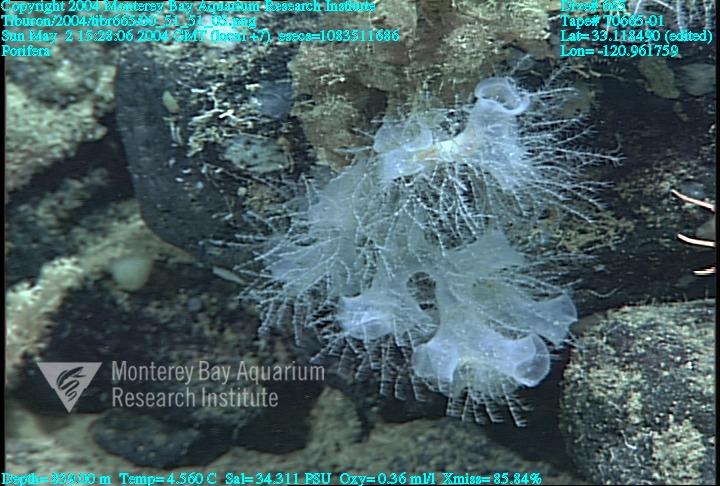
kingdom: Animalia
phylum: Porifera
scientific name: Porifera
